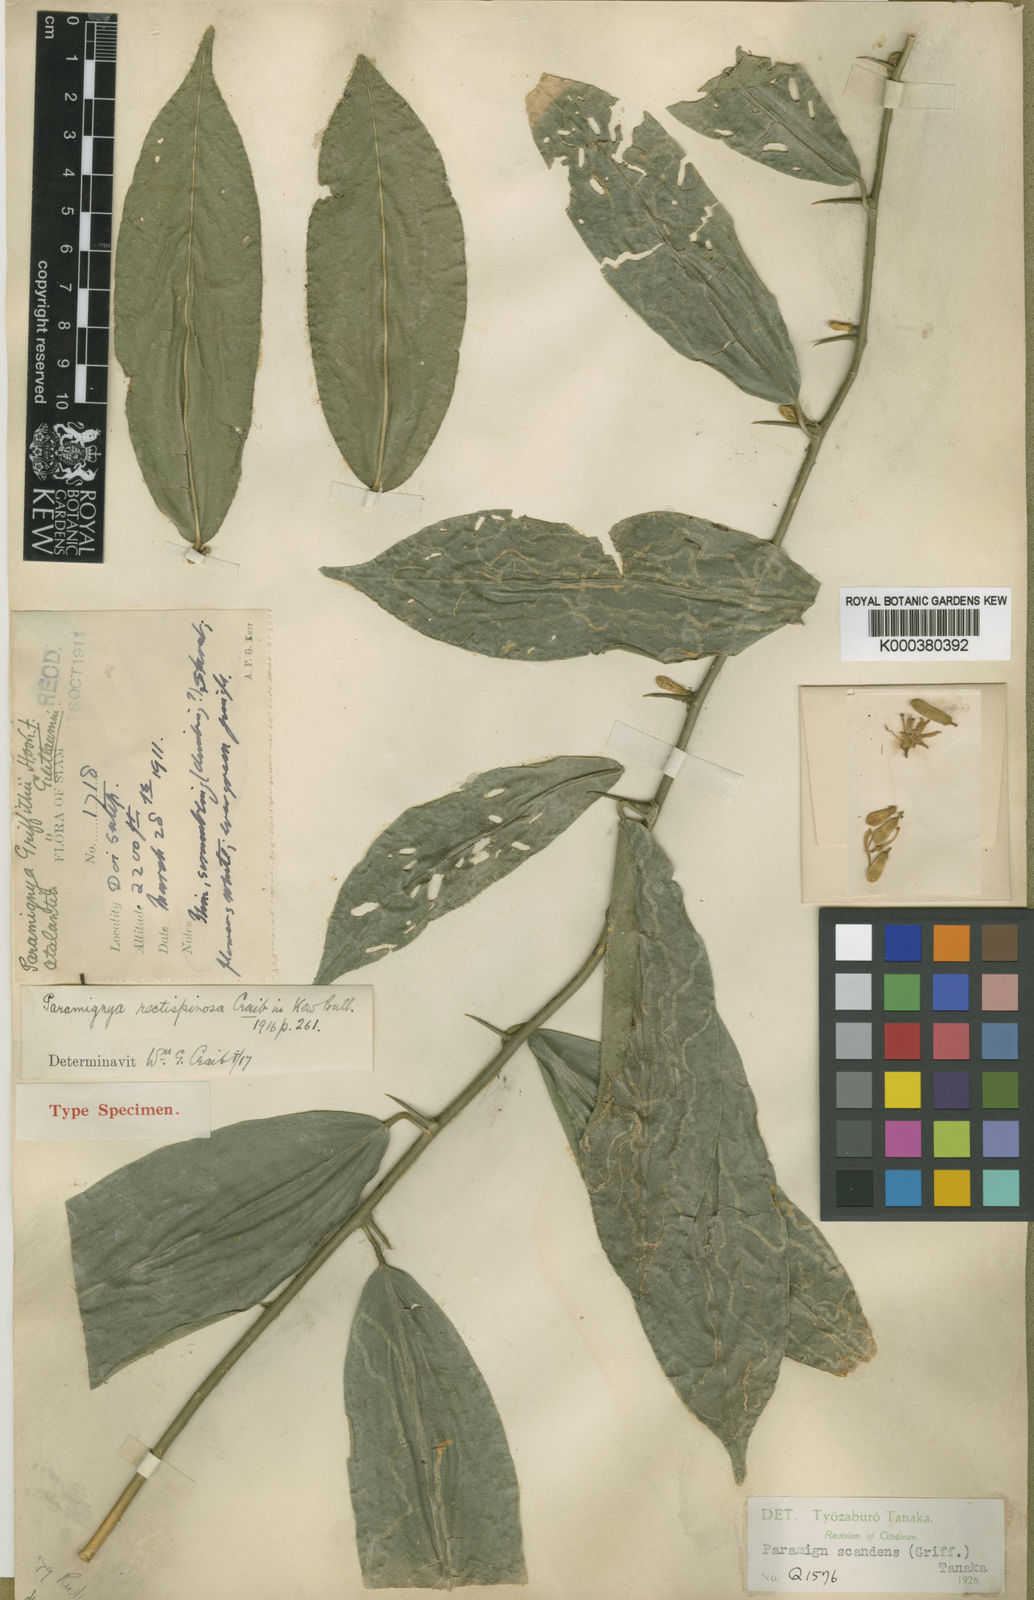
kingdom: Plantae
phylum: Tracheophyta
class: Magnoliopsida
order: Sapindales
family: Rutaceae
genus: Paramignya
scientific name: Paramignya rectispinosa
